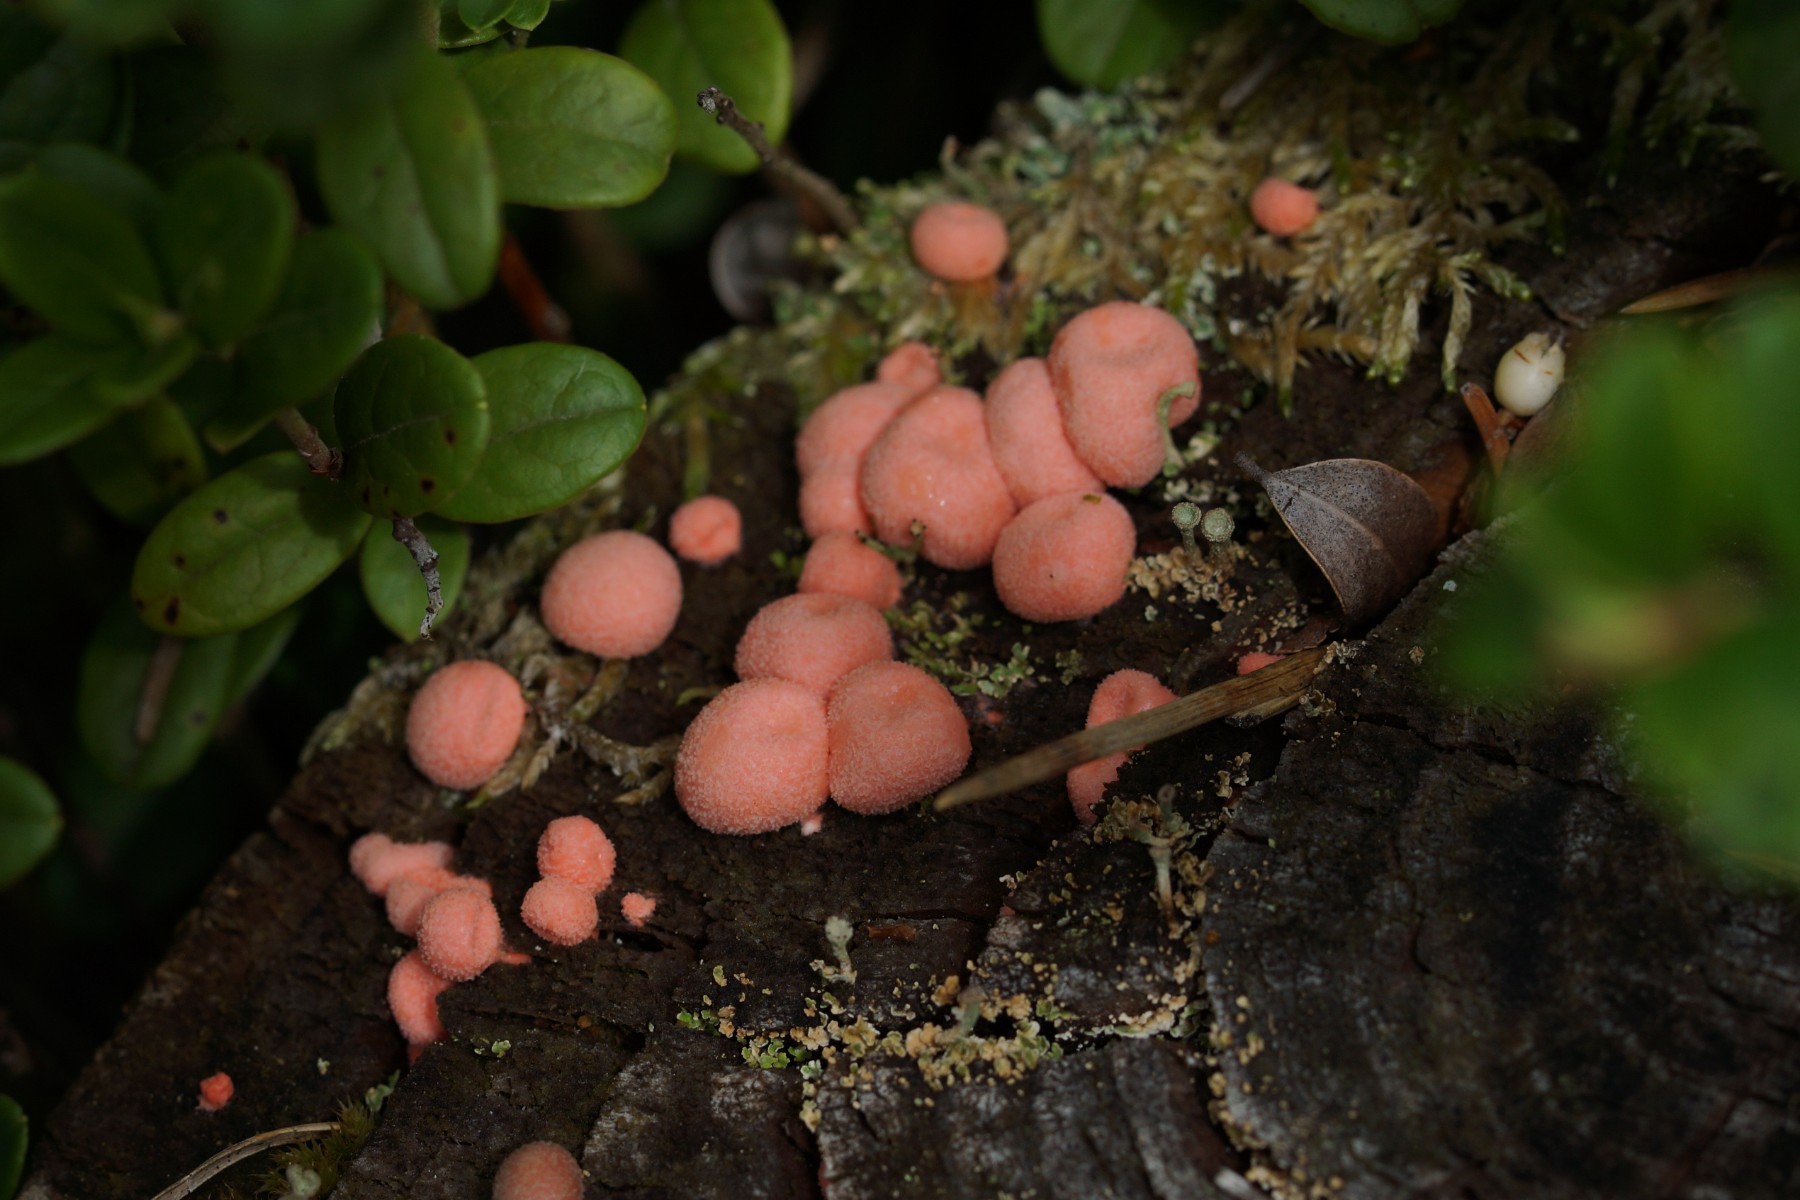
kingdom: Protozoa
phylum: Mycetozoa
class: Myxomycetes
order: Cribrariales
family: Tubiferaceae
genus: Lycogala
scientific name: Lycogala epidendrum
